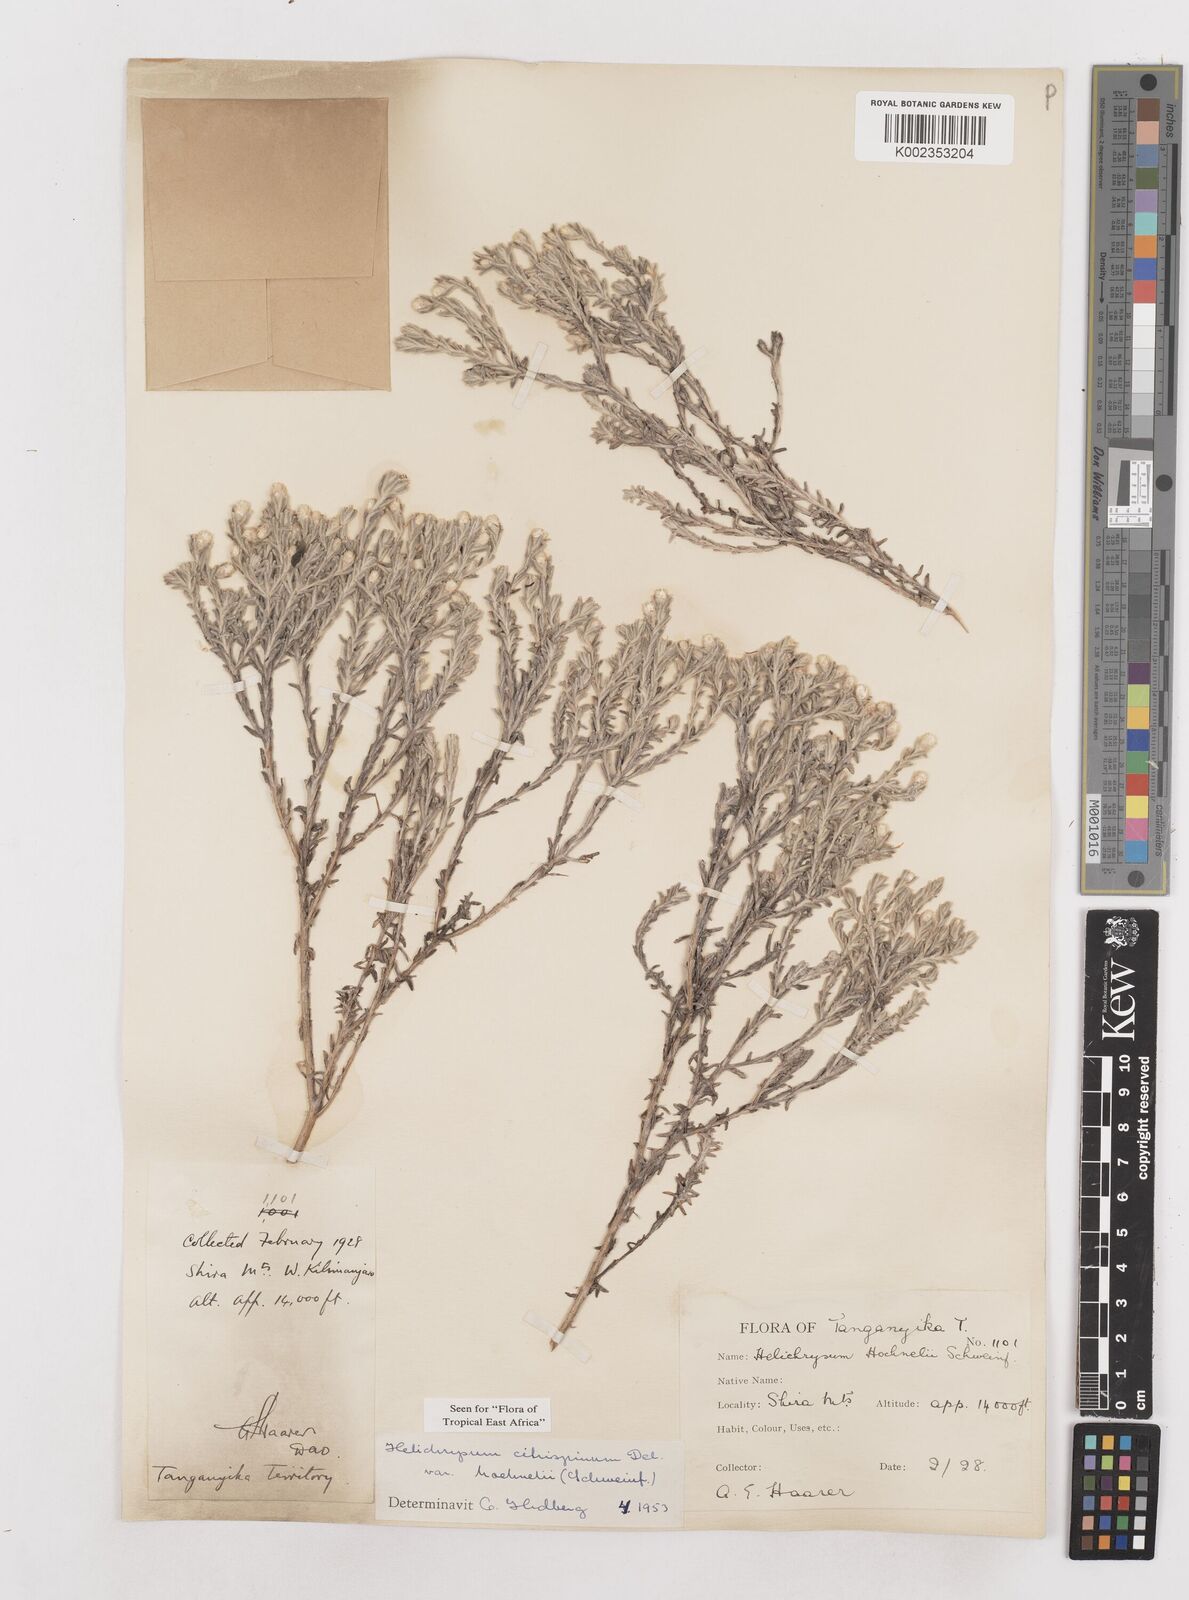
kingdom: Plantae
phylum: Tracheophyta
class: Magnoliopsida
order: Asterales
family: Asteraceae
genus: Helichrysum
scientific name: Helichrysum citrispinum
